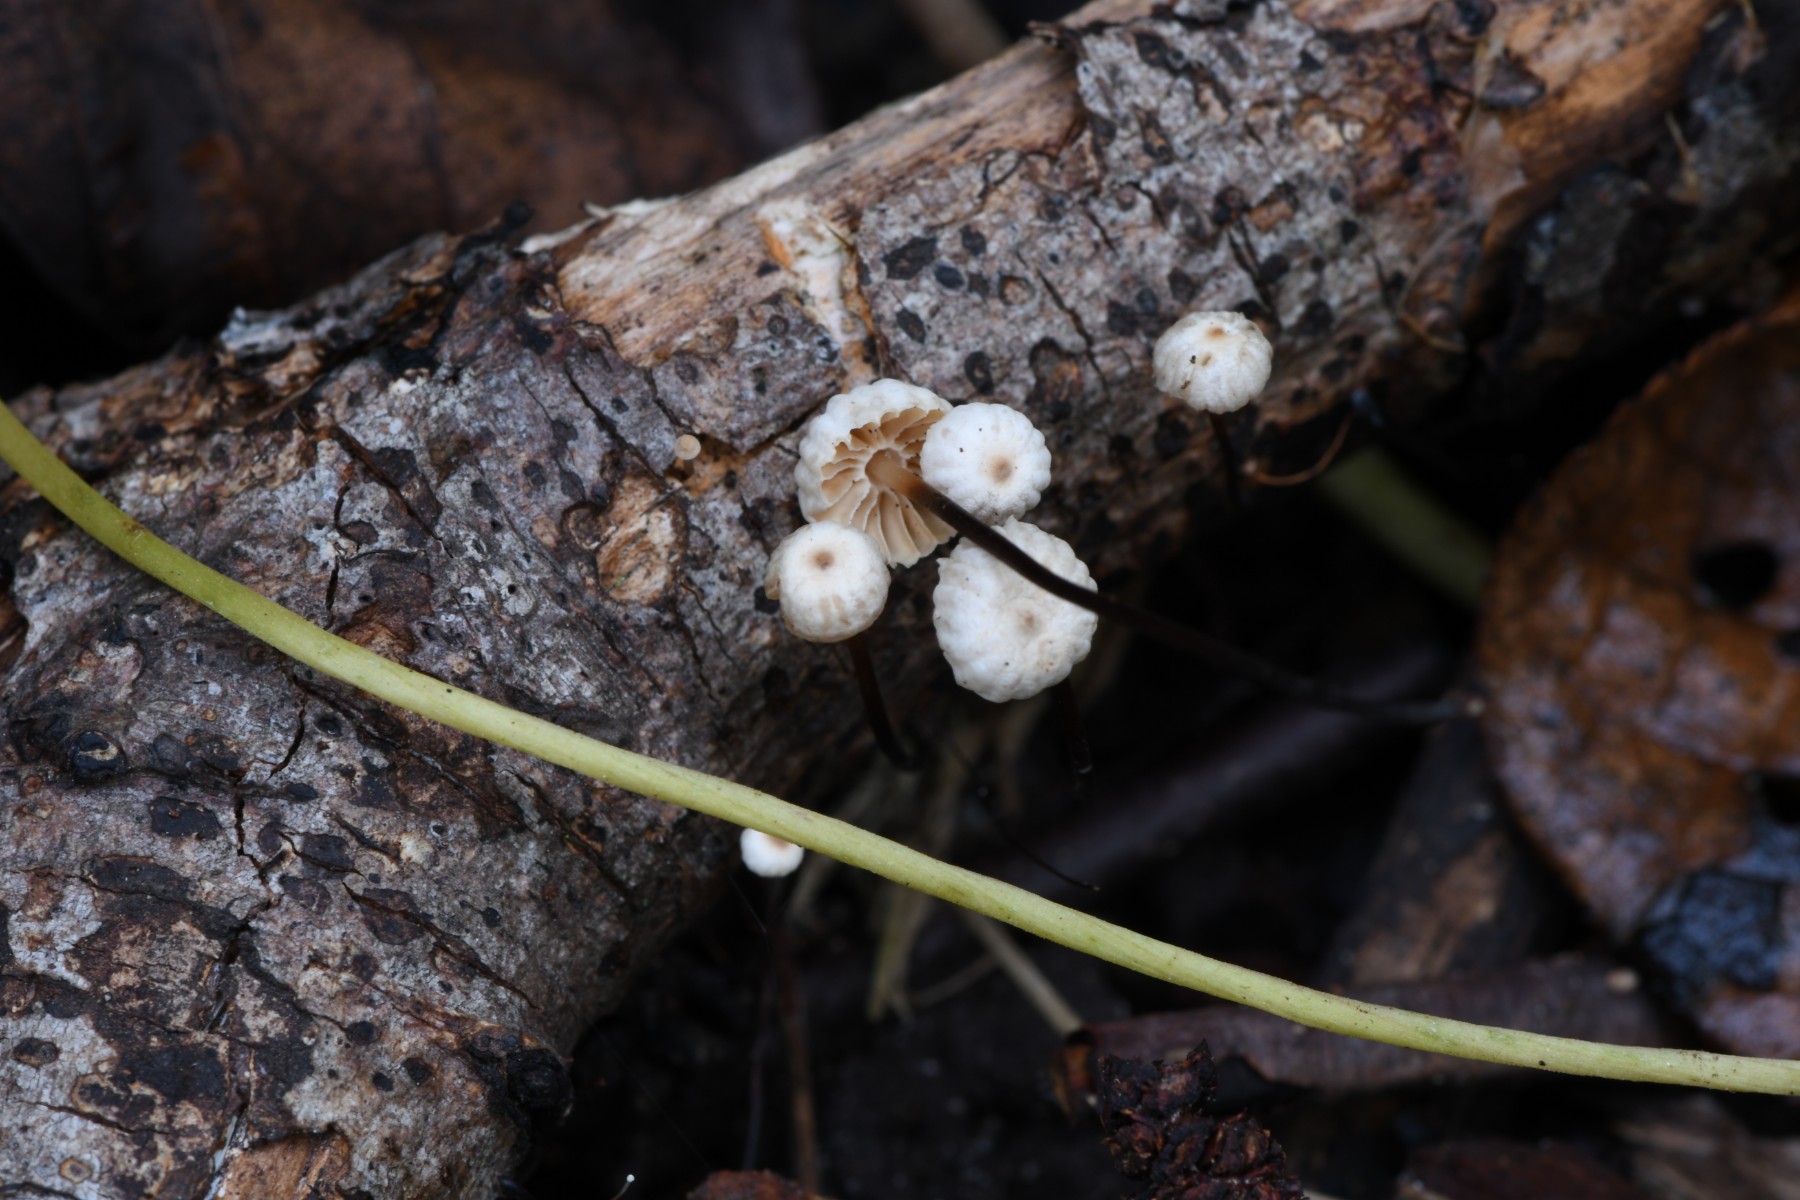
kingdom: Fungi
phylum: Basidiomycota
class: Agaricomycetes
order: Agaricales
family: Marasmiaceae
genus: Marasmius
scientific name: Marasmius rotula
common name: hjul-bruskhat
